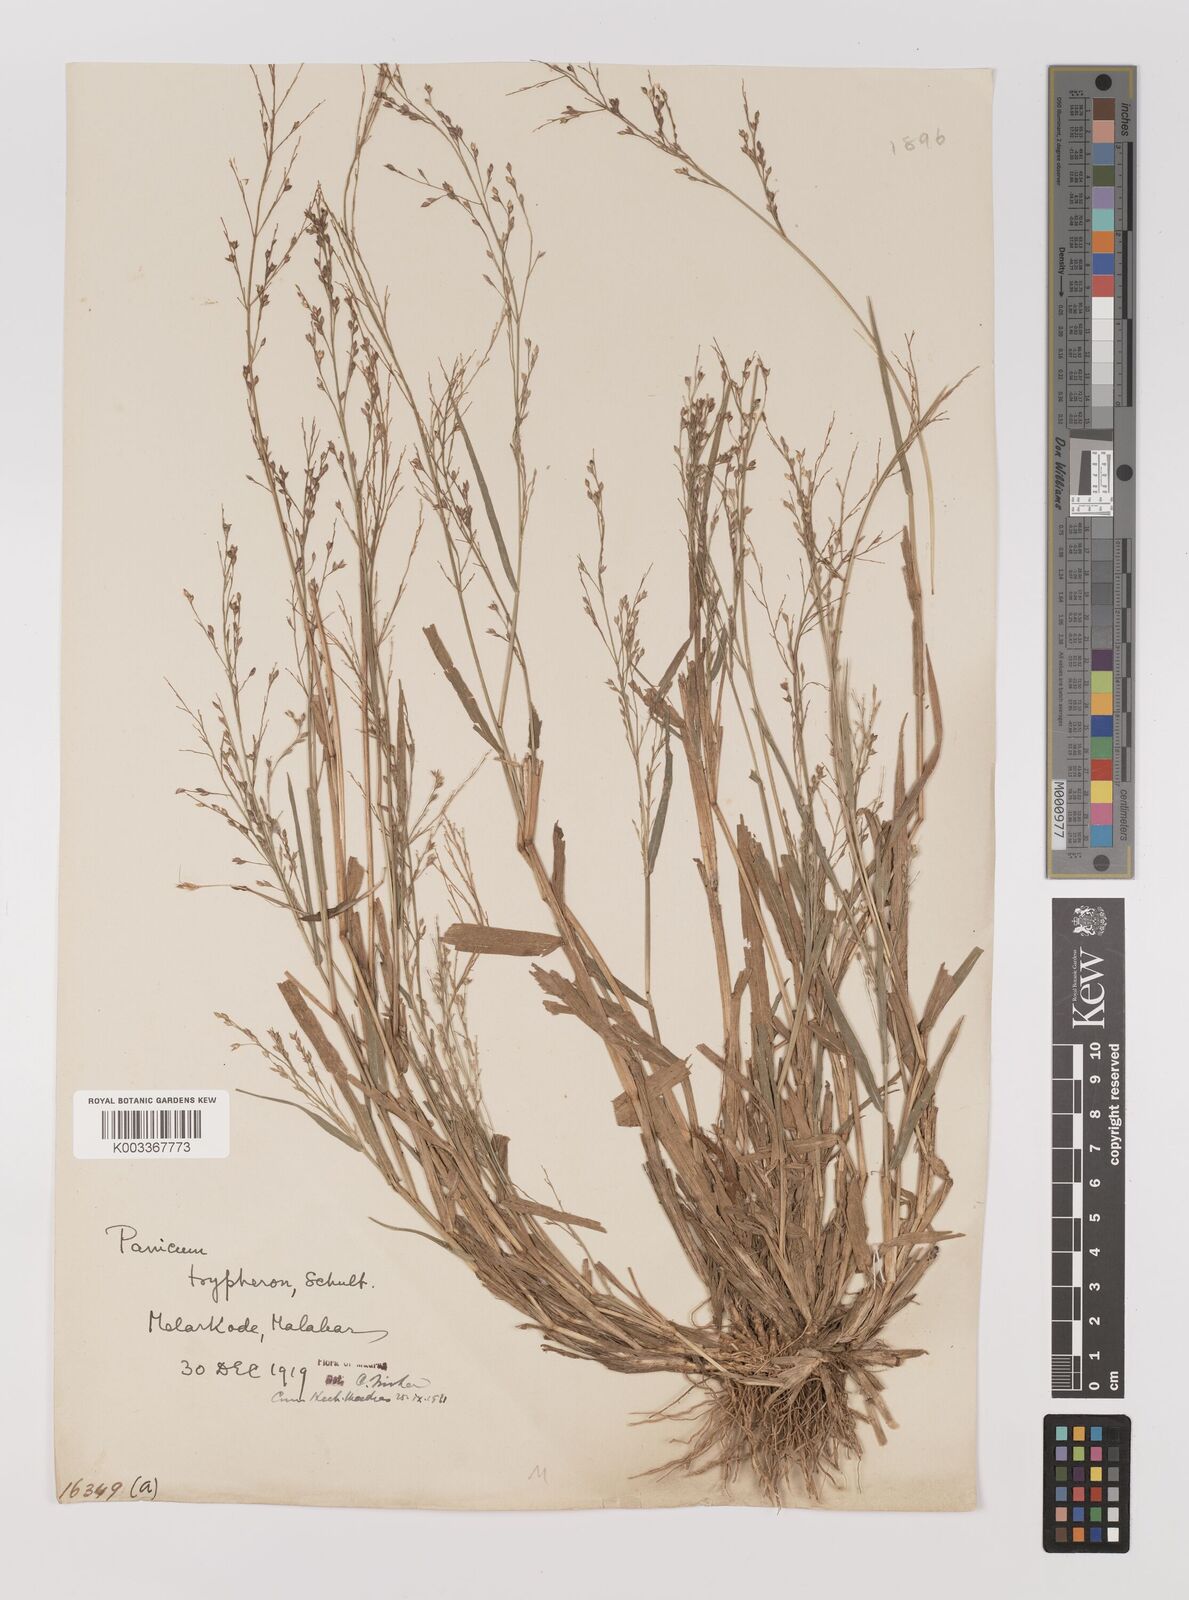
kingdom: Plantae
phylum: Tracheophyta
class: Liliopsida
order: Poales
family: Poaceae
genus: Panicum
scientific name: Panicum curviflorum
